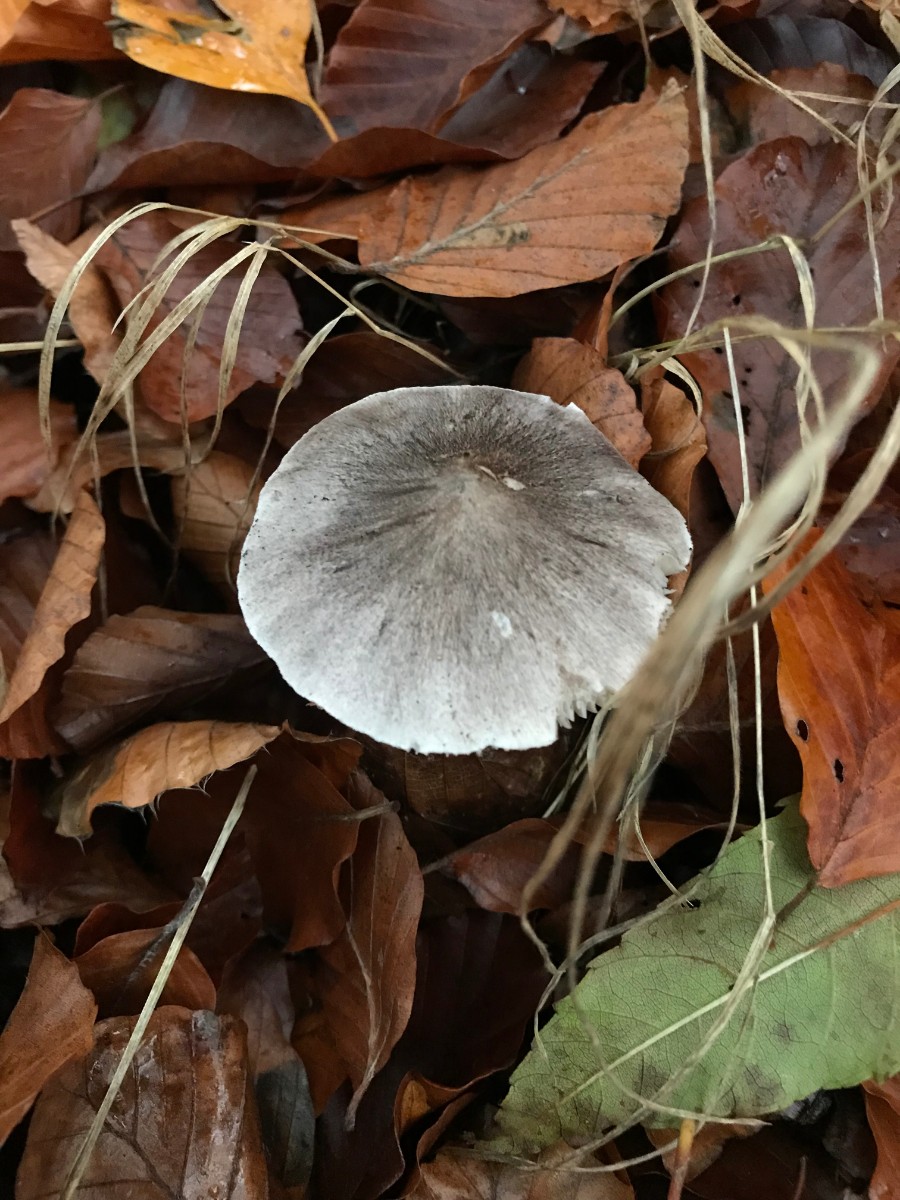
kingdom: Fungi
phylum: Basidiomycota
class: Agaricomycetes
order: Agaricales
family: Tricholomataceae
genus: Tricholoma
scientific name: Tricholoma sciodes
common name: stribet ridderhat
